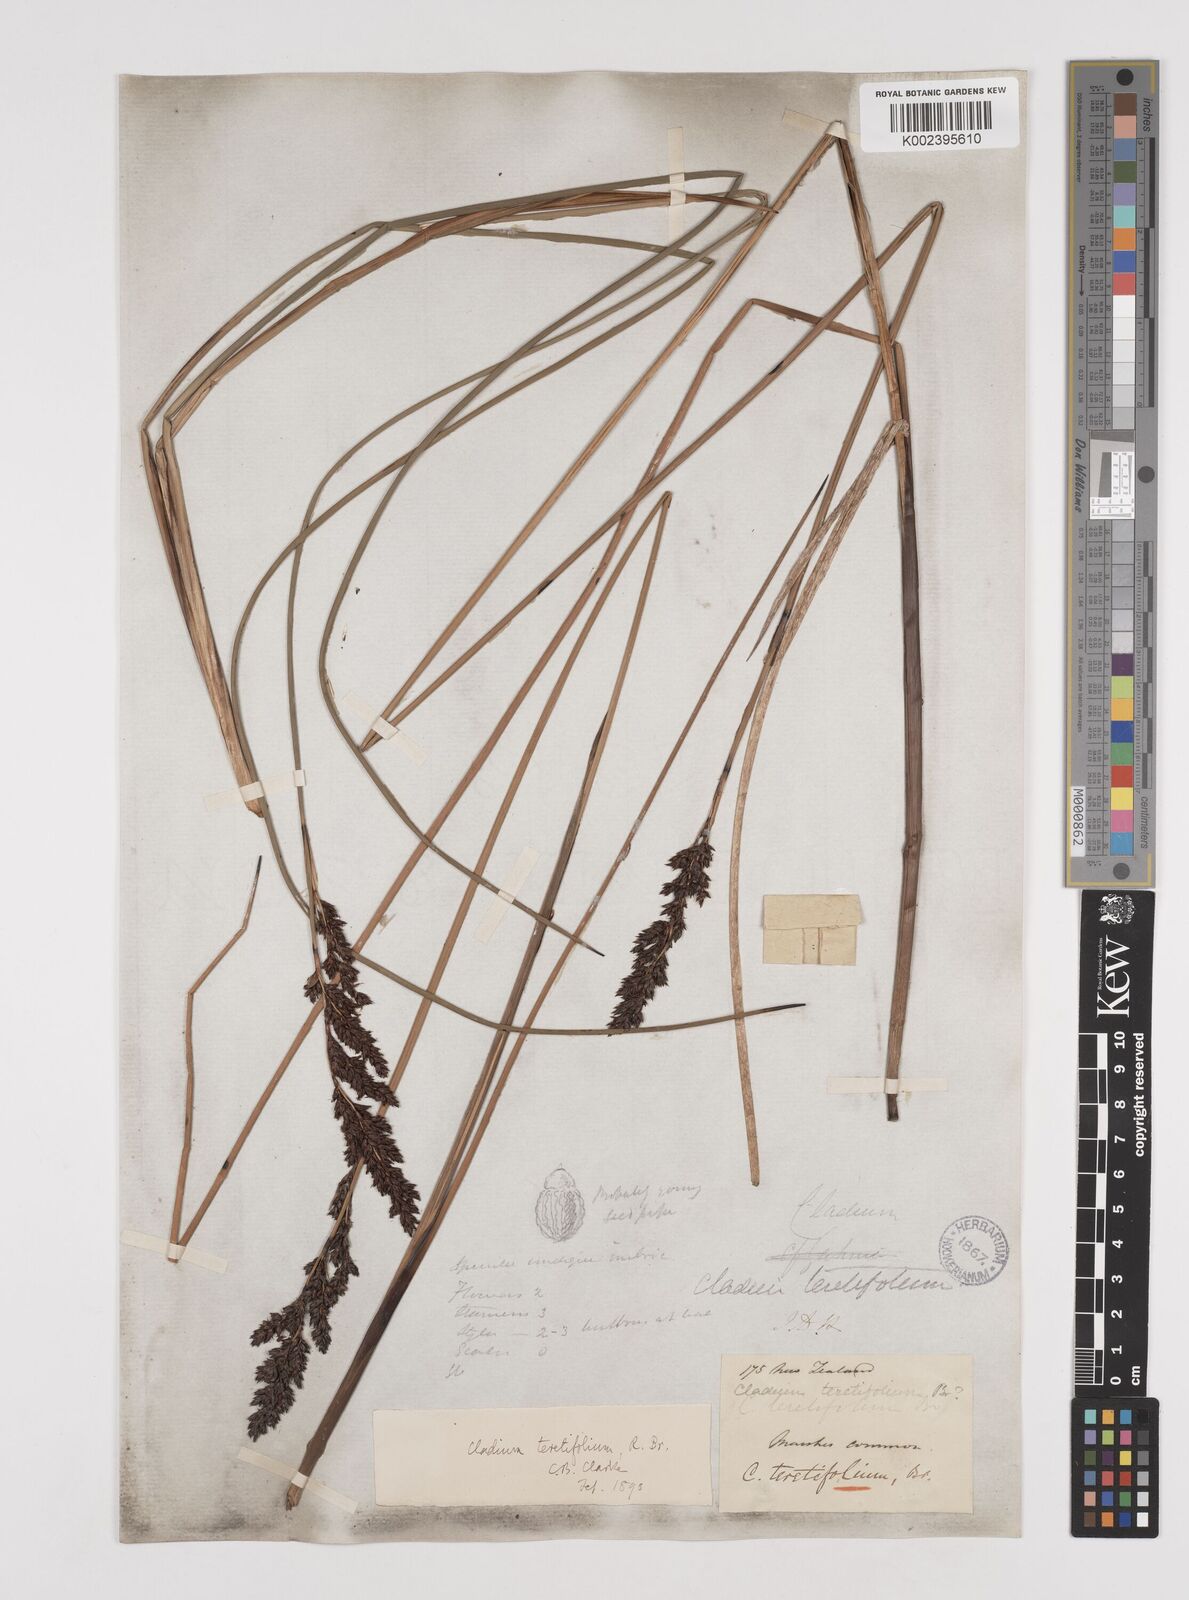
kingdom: Plantae
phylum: Tracheophyta
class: Liliopsida
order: Poales
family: Cyperaceae
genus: Machaerina
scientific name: Machaerina teretifolia
